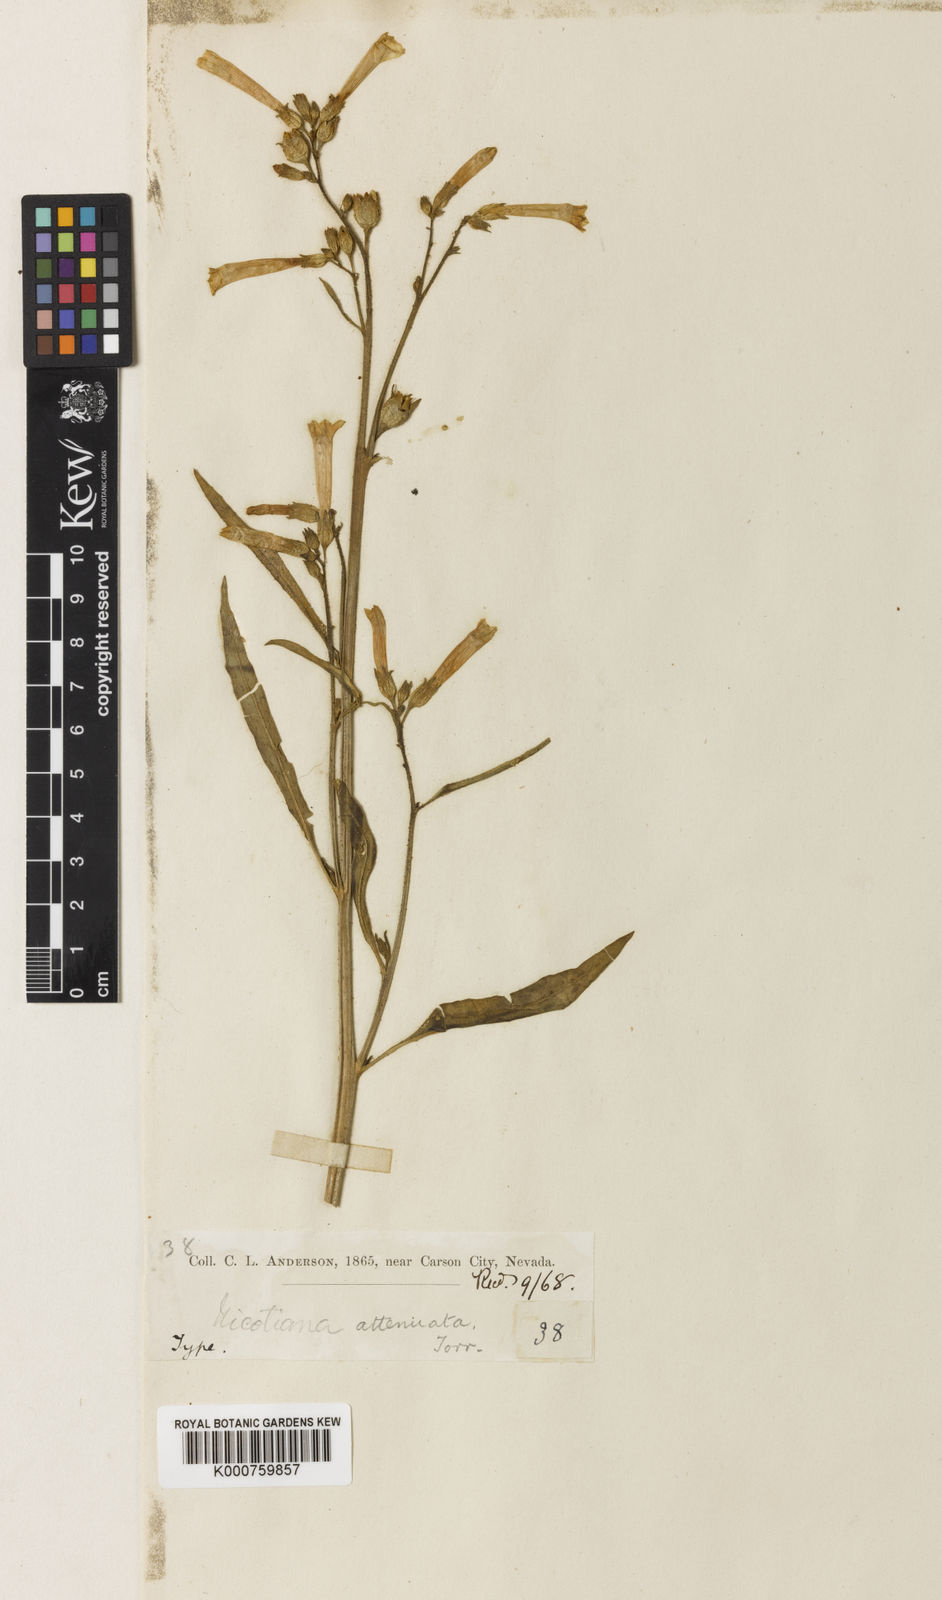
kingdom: Plantae
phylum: Tracheophyta
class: Magnoliopsida
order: Solanales
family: Solanaceae
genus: Nicotiana
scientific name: Nicotiana
